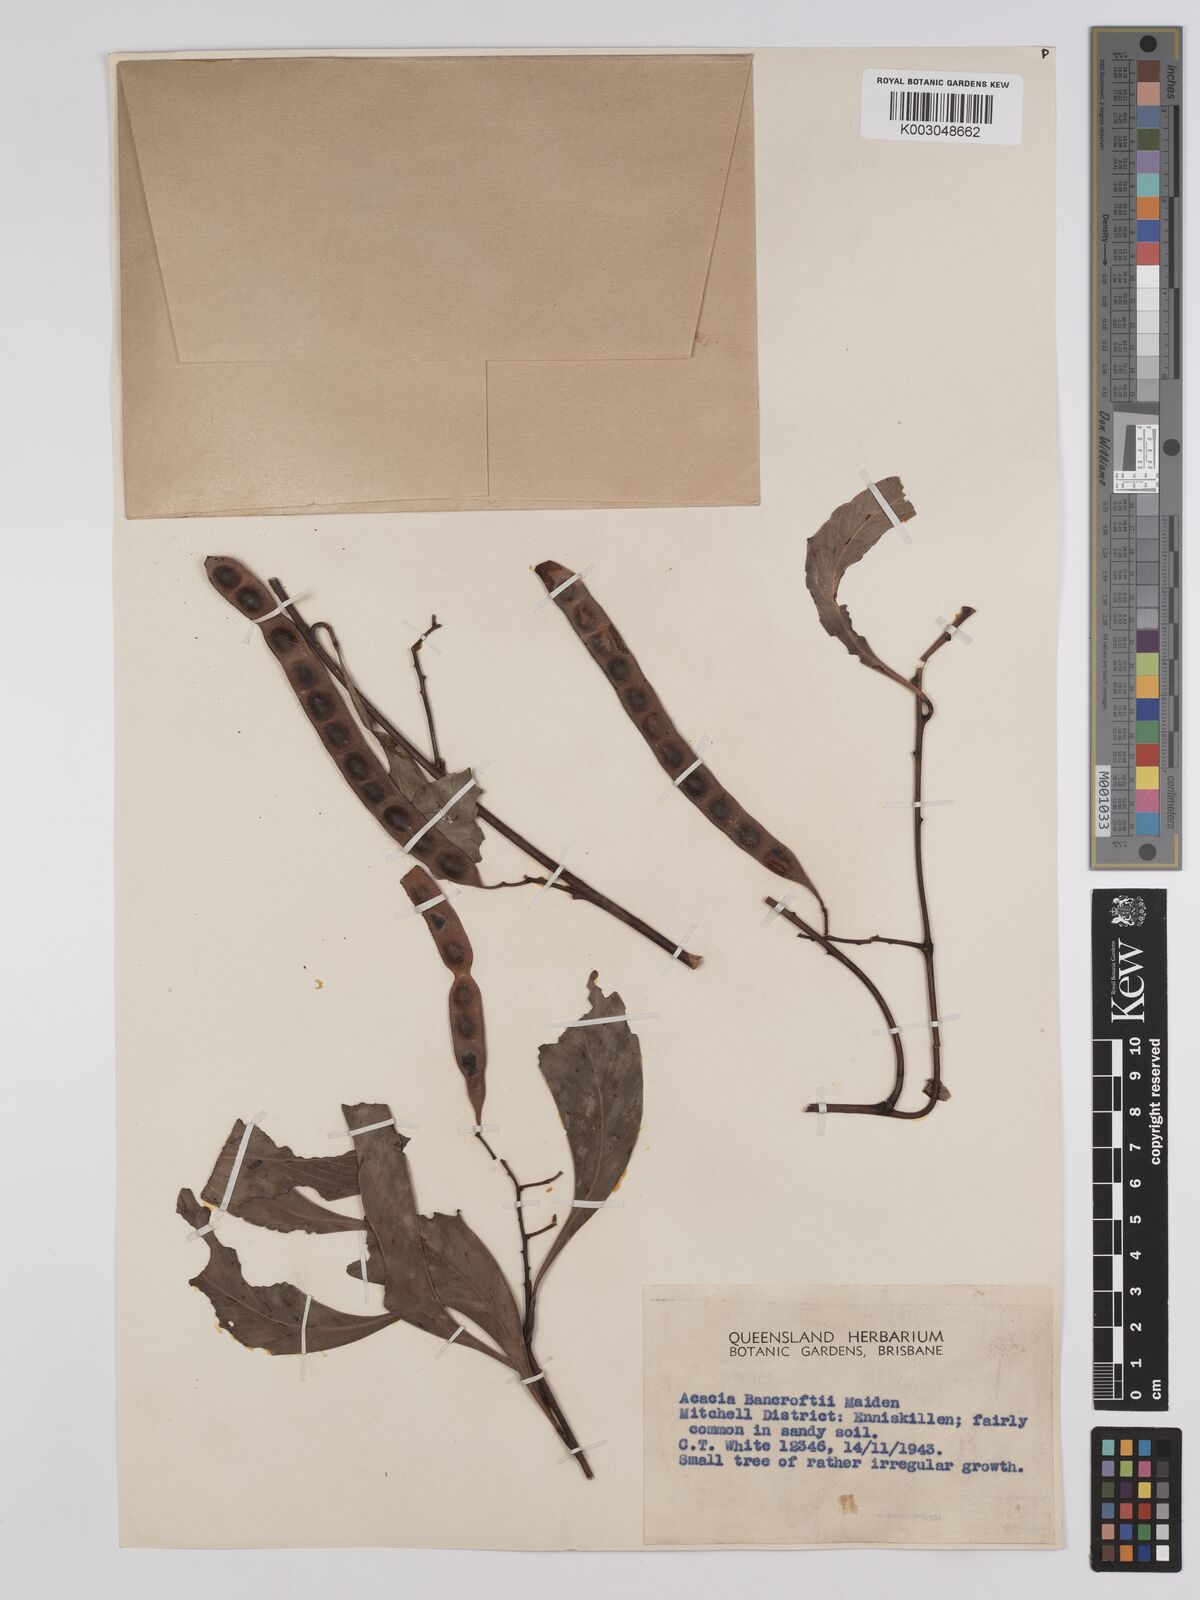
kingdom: Plantae
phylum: Tracheophyta
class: Magnoliopsida
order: Fabales
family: Fabaceae
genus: Acacia
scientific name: Acacia
